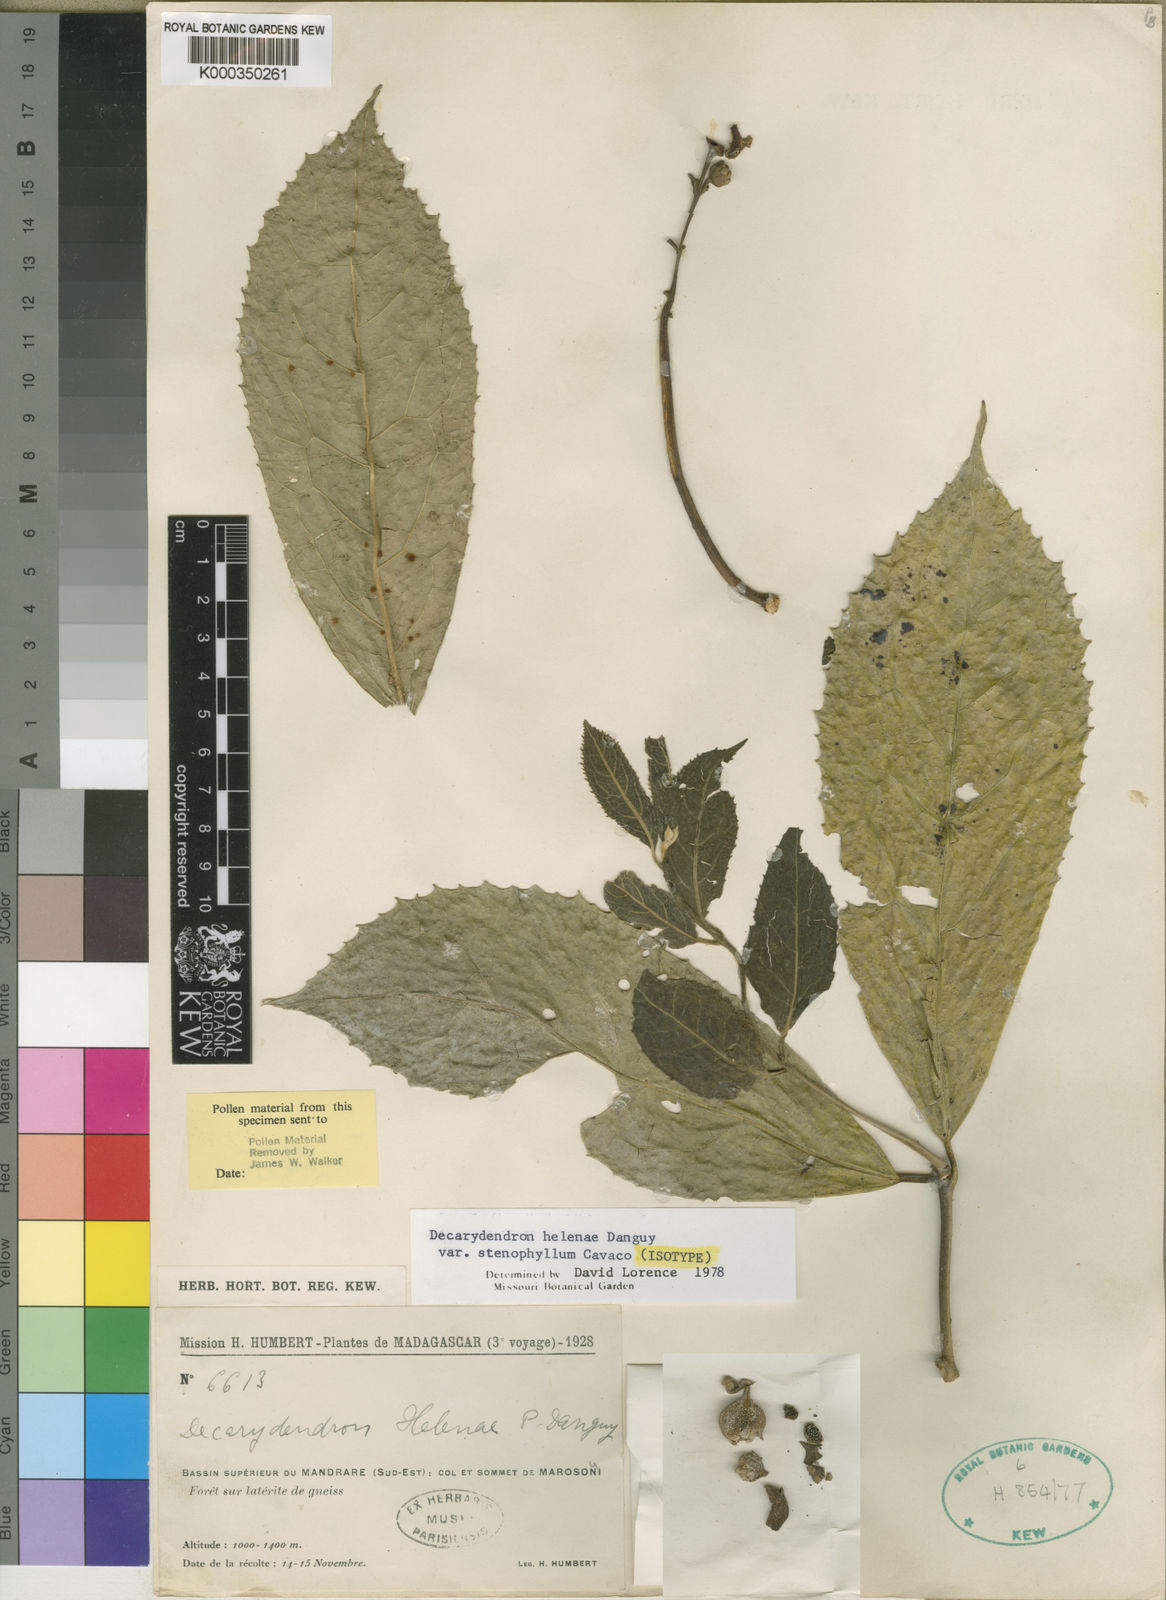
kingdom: Plantae
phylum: Tracheophyta
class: Magnoliopsida
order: Laurales
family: Monimiaceae
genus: Decarydendron
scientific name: Decarydendron helenae
